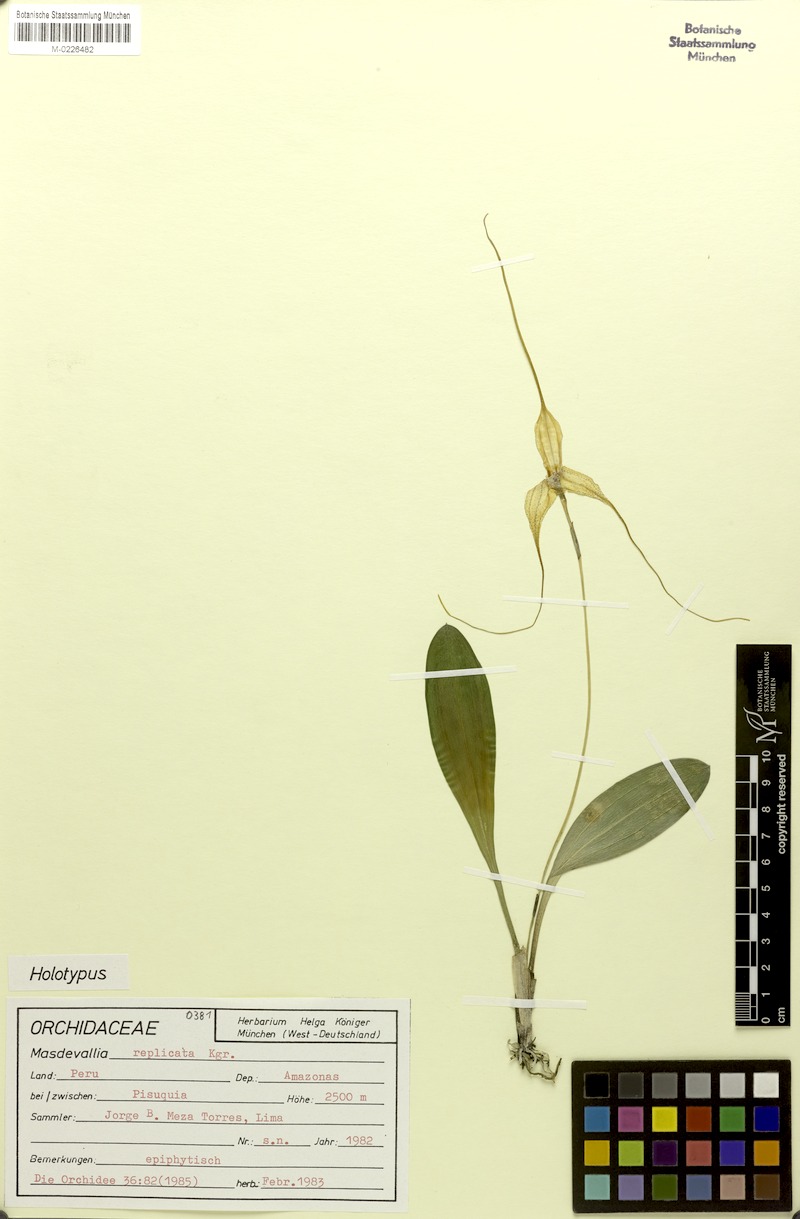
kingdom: Plantae
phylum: Tracheophyta
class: Liliopsida
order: Asparagales
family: Orchidaceae
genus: Masdevallia
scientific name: Masdevallia replicata
